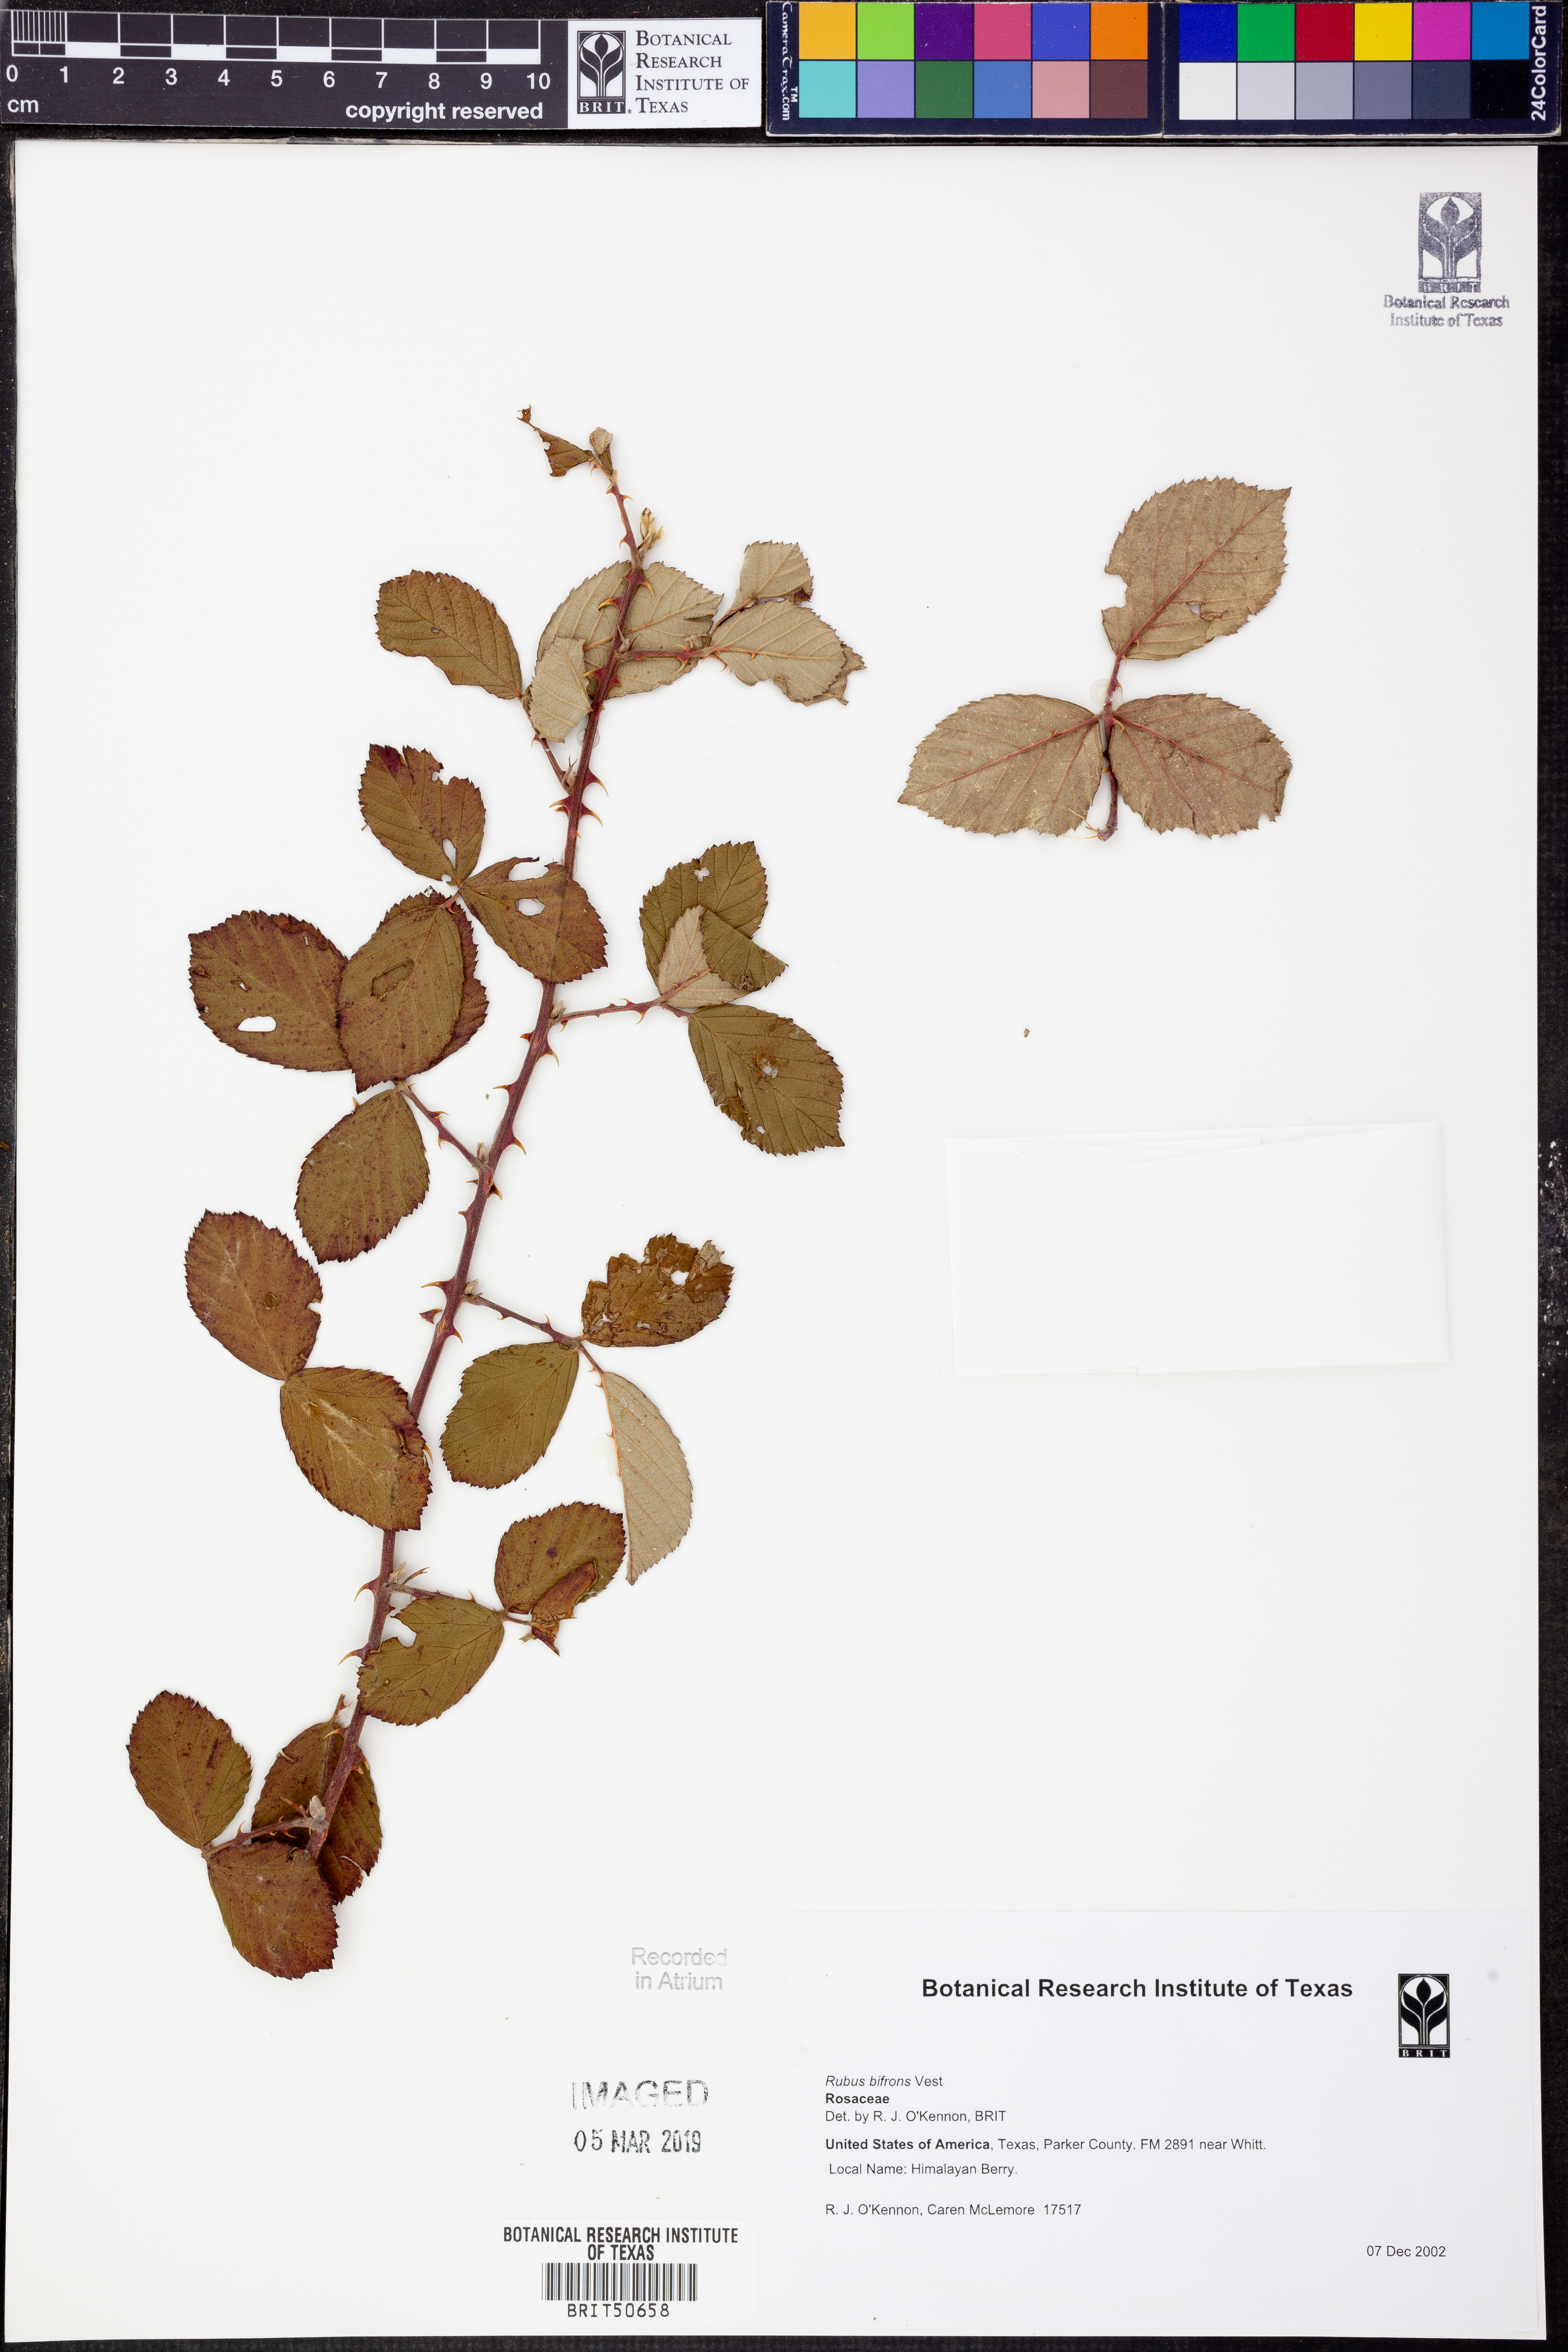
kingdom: Plantae
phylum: Tracheophyta
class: Magnoliopsida
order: Rosales
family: Rosaceae
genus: Rubus
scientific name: Rubus bifrons
